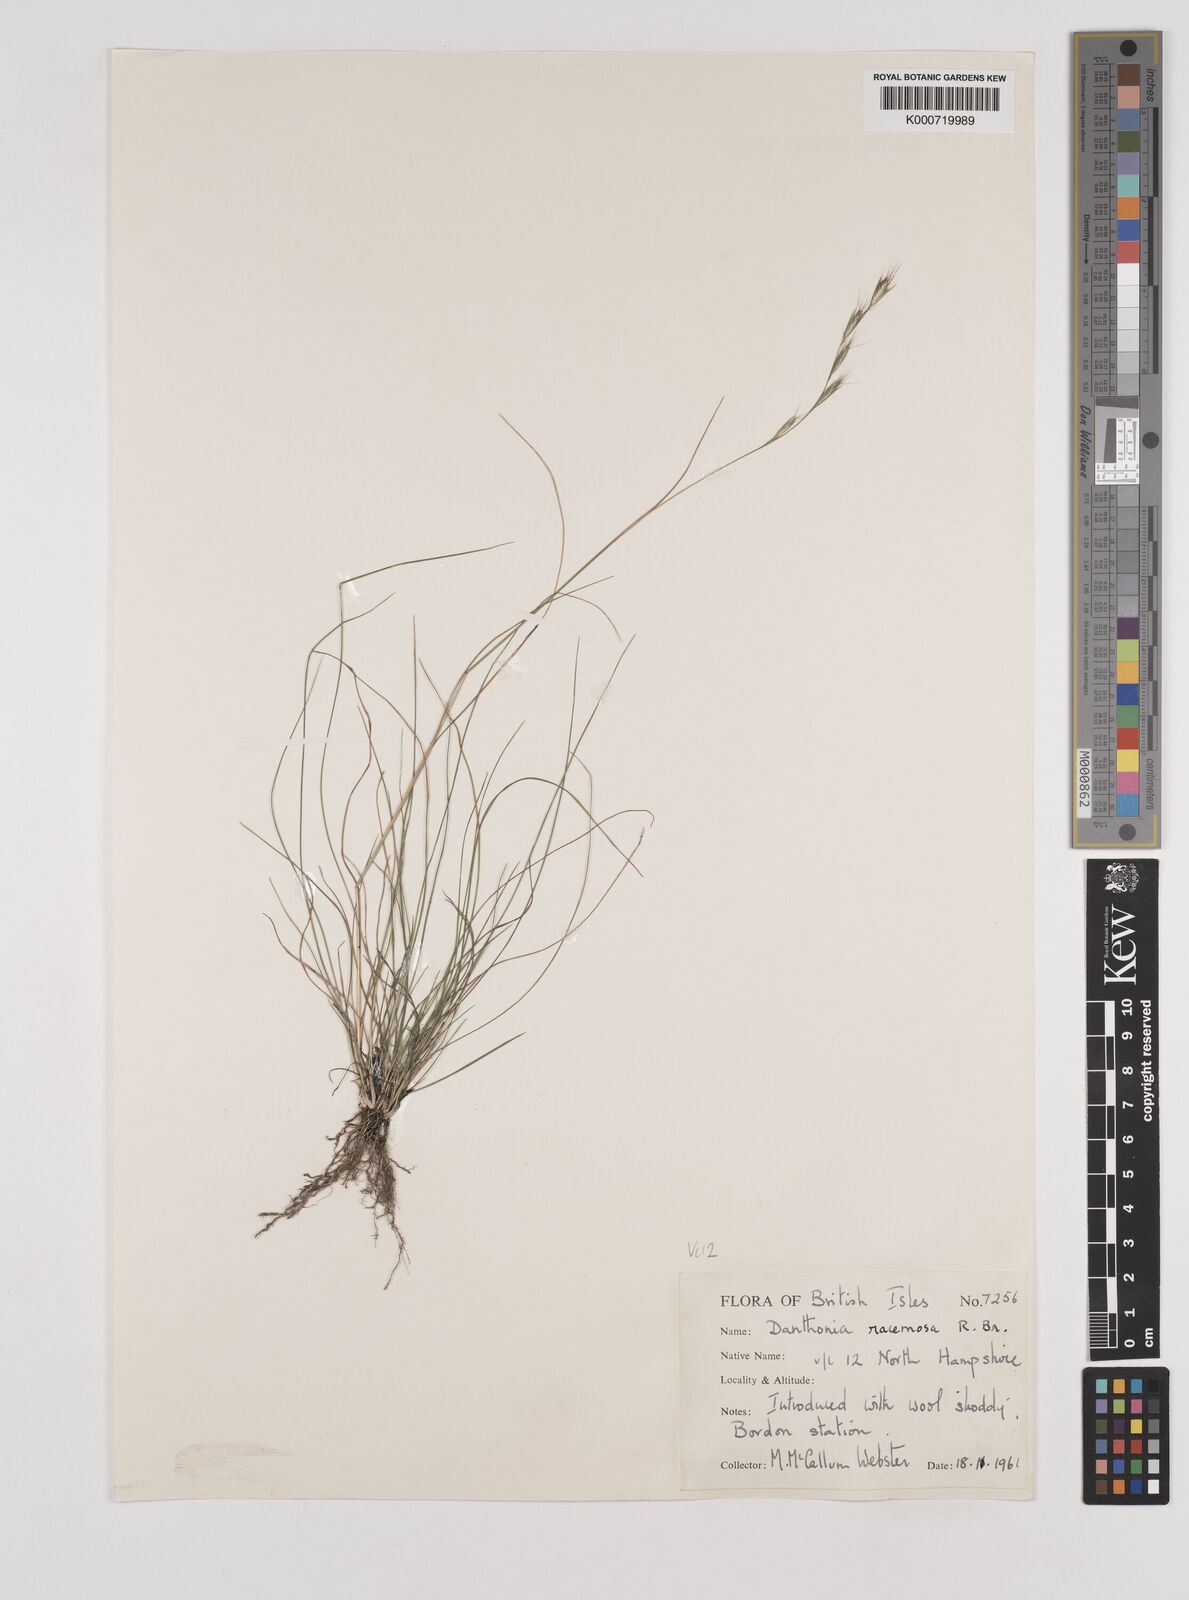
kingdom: Plantae
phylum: Tracheophyta
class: Liliopsida
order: Poales
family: Poaceae
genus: Rytidosperma
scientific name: Rytidosperma racemosum
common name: Wallaby-grass
